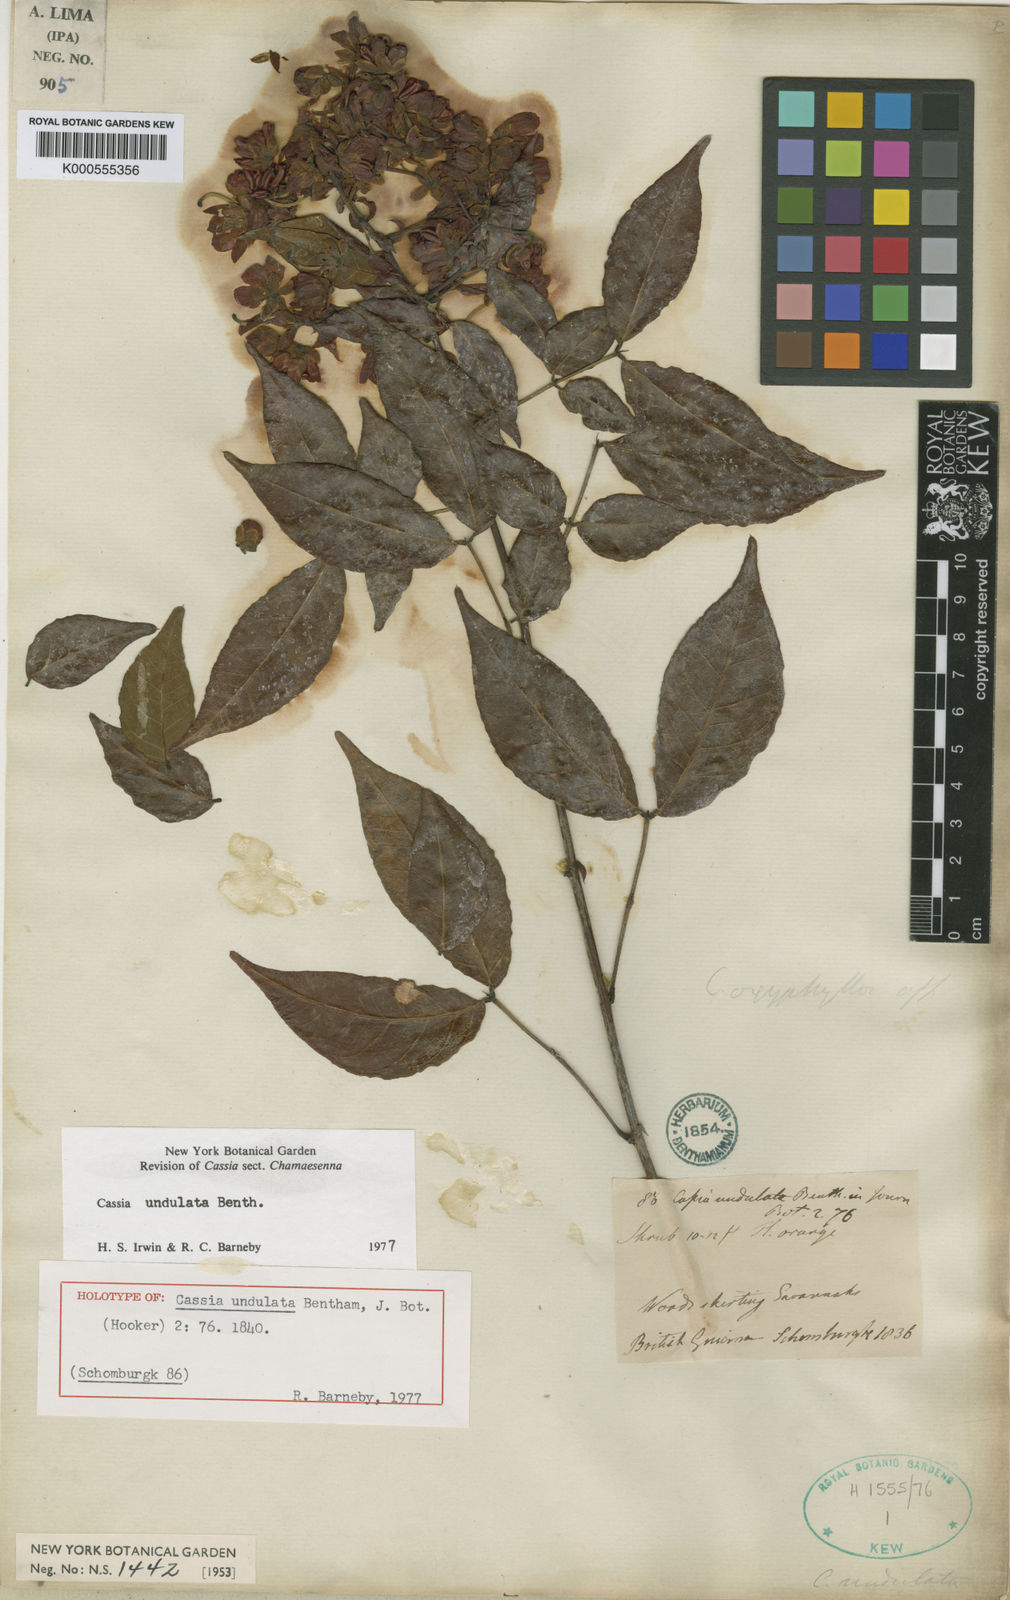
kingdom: Plantae
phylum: Tracheophyta
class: Magnoliopsida
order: Fabales
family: Fabaceae
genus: Senna
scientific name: Senna undulata
